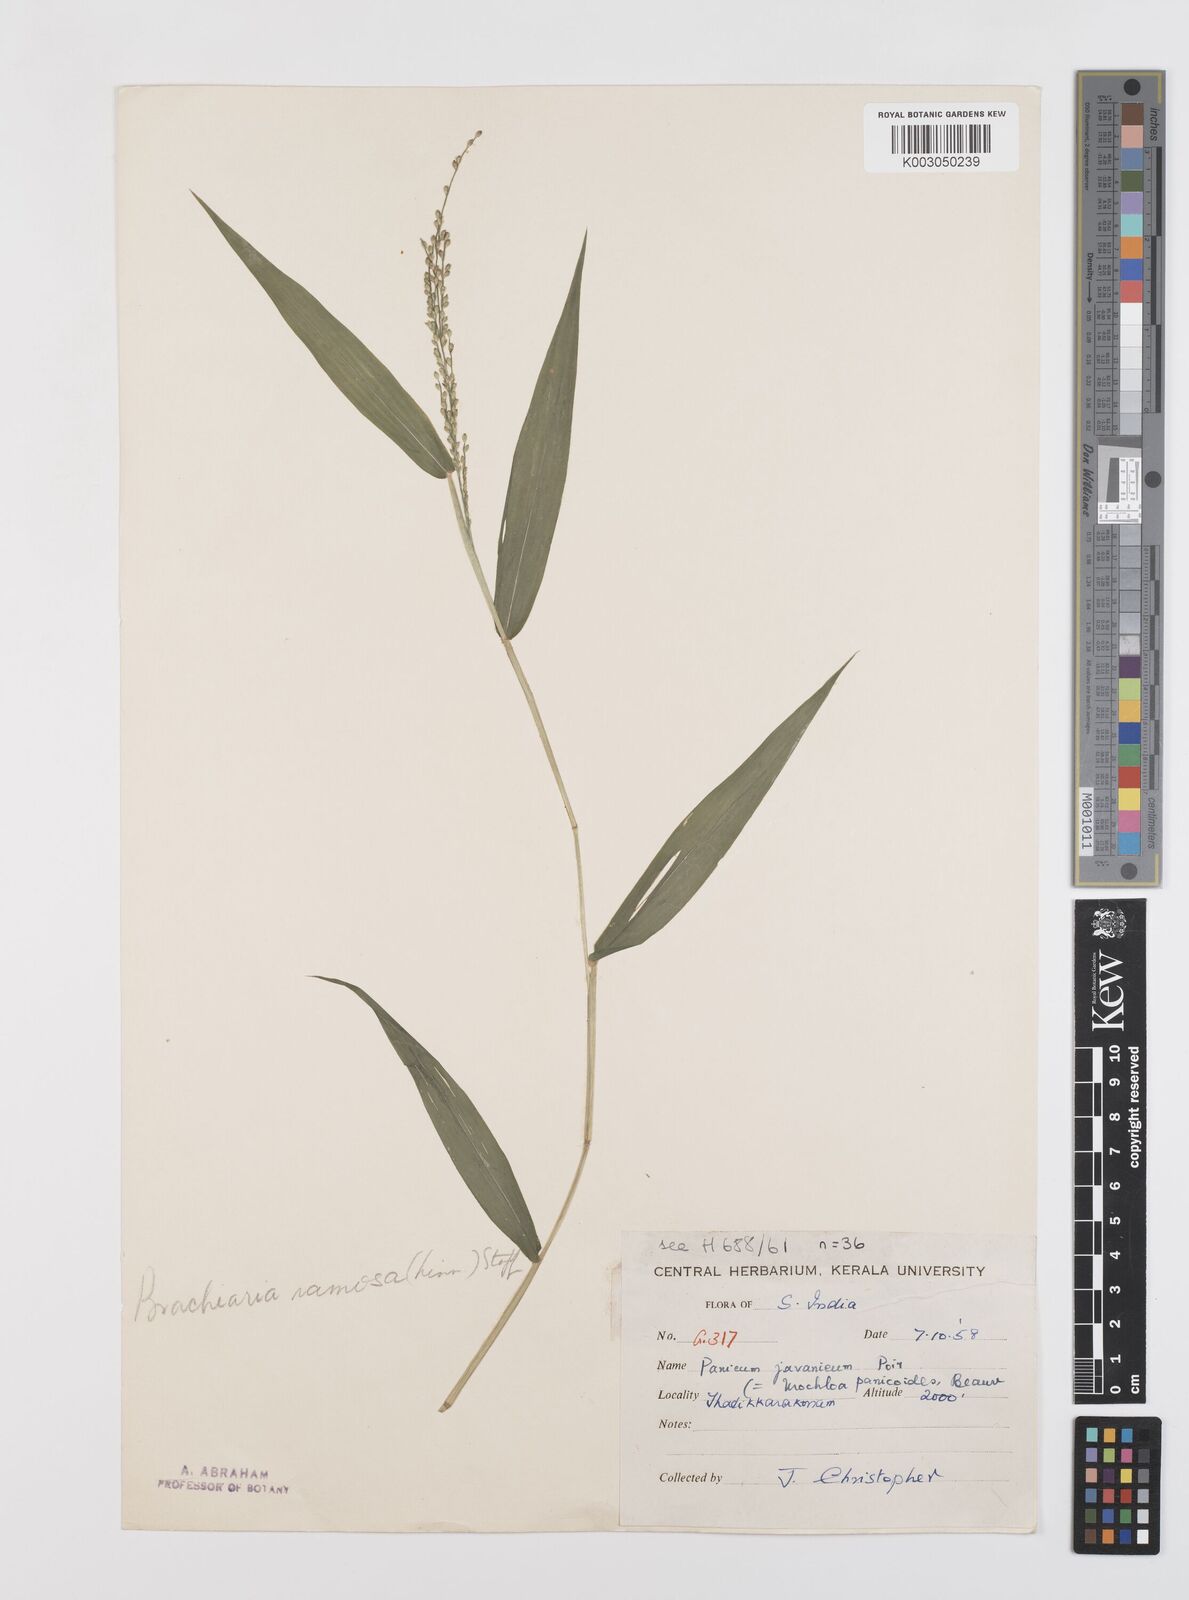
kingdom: Plantae
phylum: Tracheophyta
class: Liliopsida
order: Poales
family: Poaceae
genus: Urochloa
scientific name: Urochloa ramosa
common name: Browntop millet
